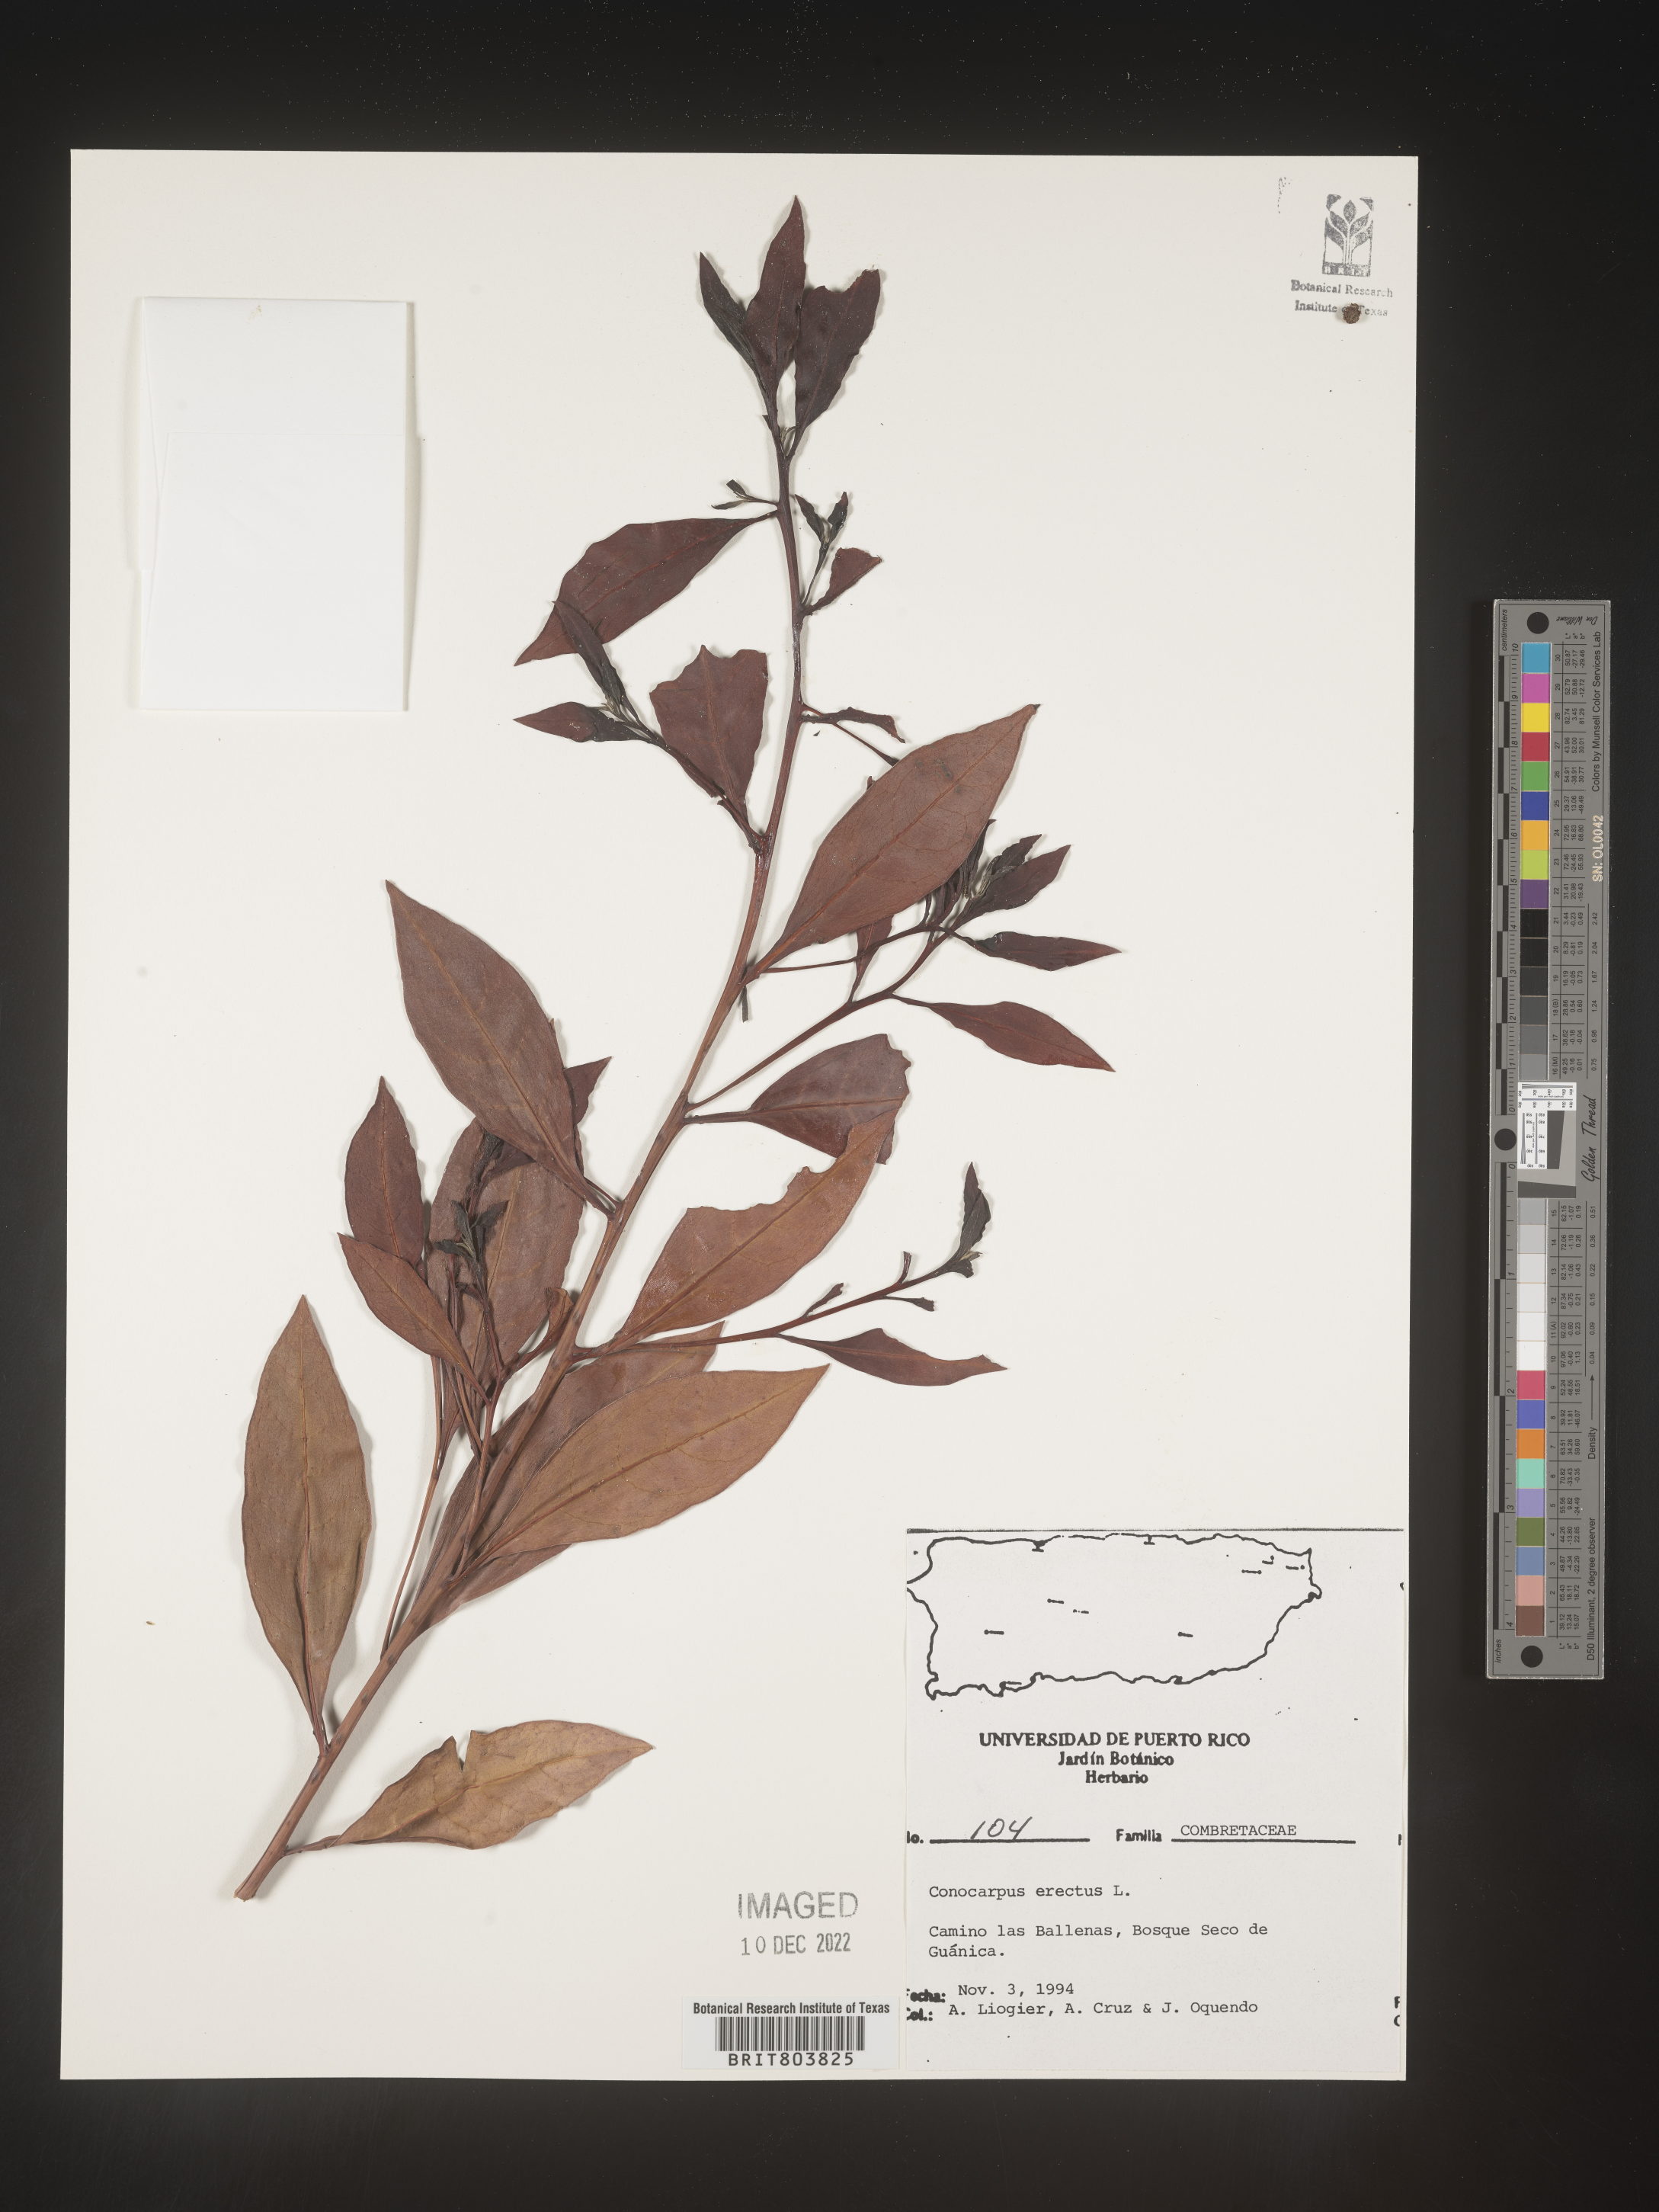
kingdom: Plantae
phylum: Tracheophyta
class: Magnoliopsida
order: Myrtales
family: Combretaceae
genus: Conocarpus
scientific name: Conocarpus
